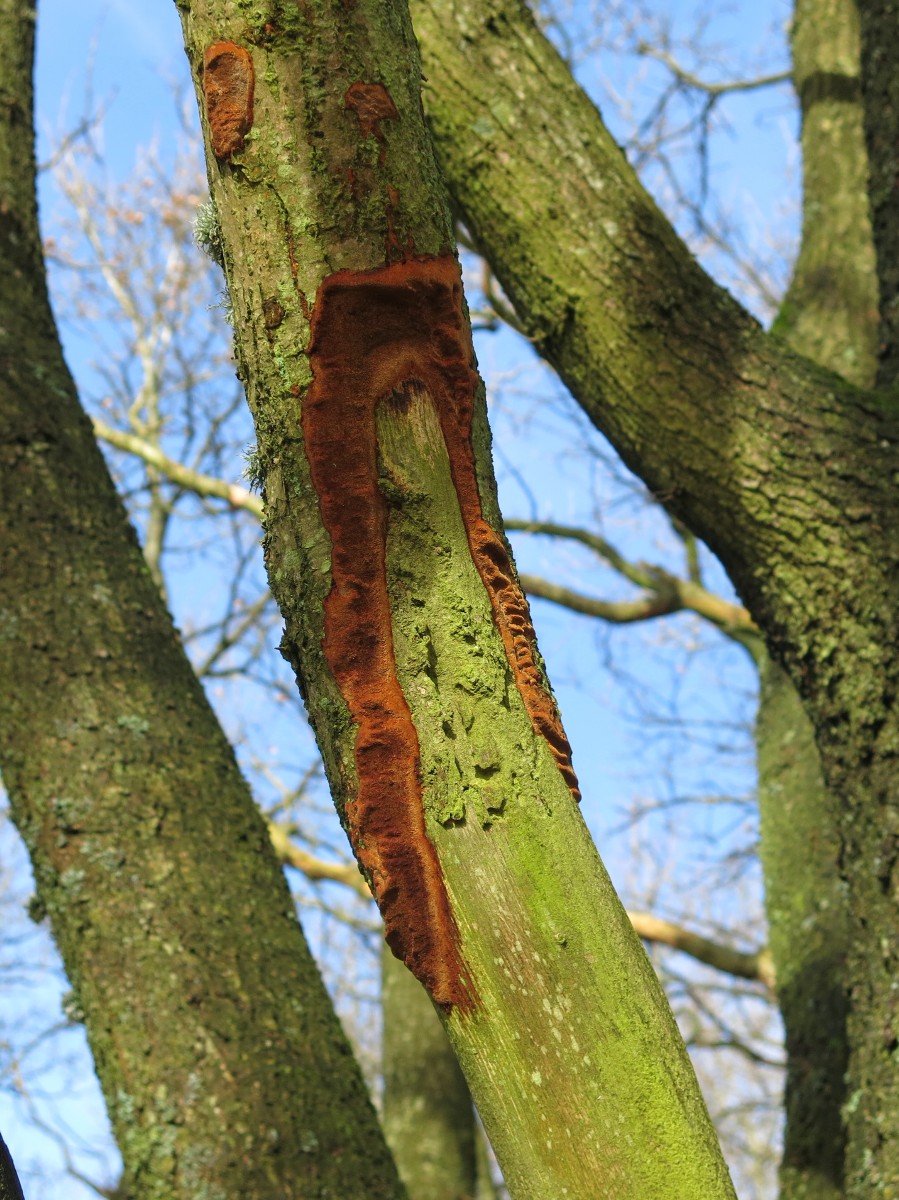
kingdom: Fungi
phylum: Basidiomycota
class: Agaricomycetes
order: Hymenochaetales
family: Hymenochaetaceae
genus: Fuscoporia
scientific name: Fuscoporia
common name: Ildporesvamp
